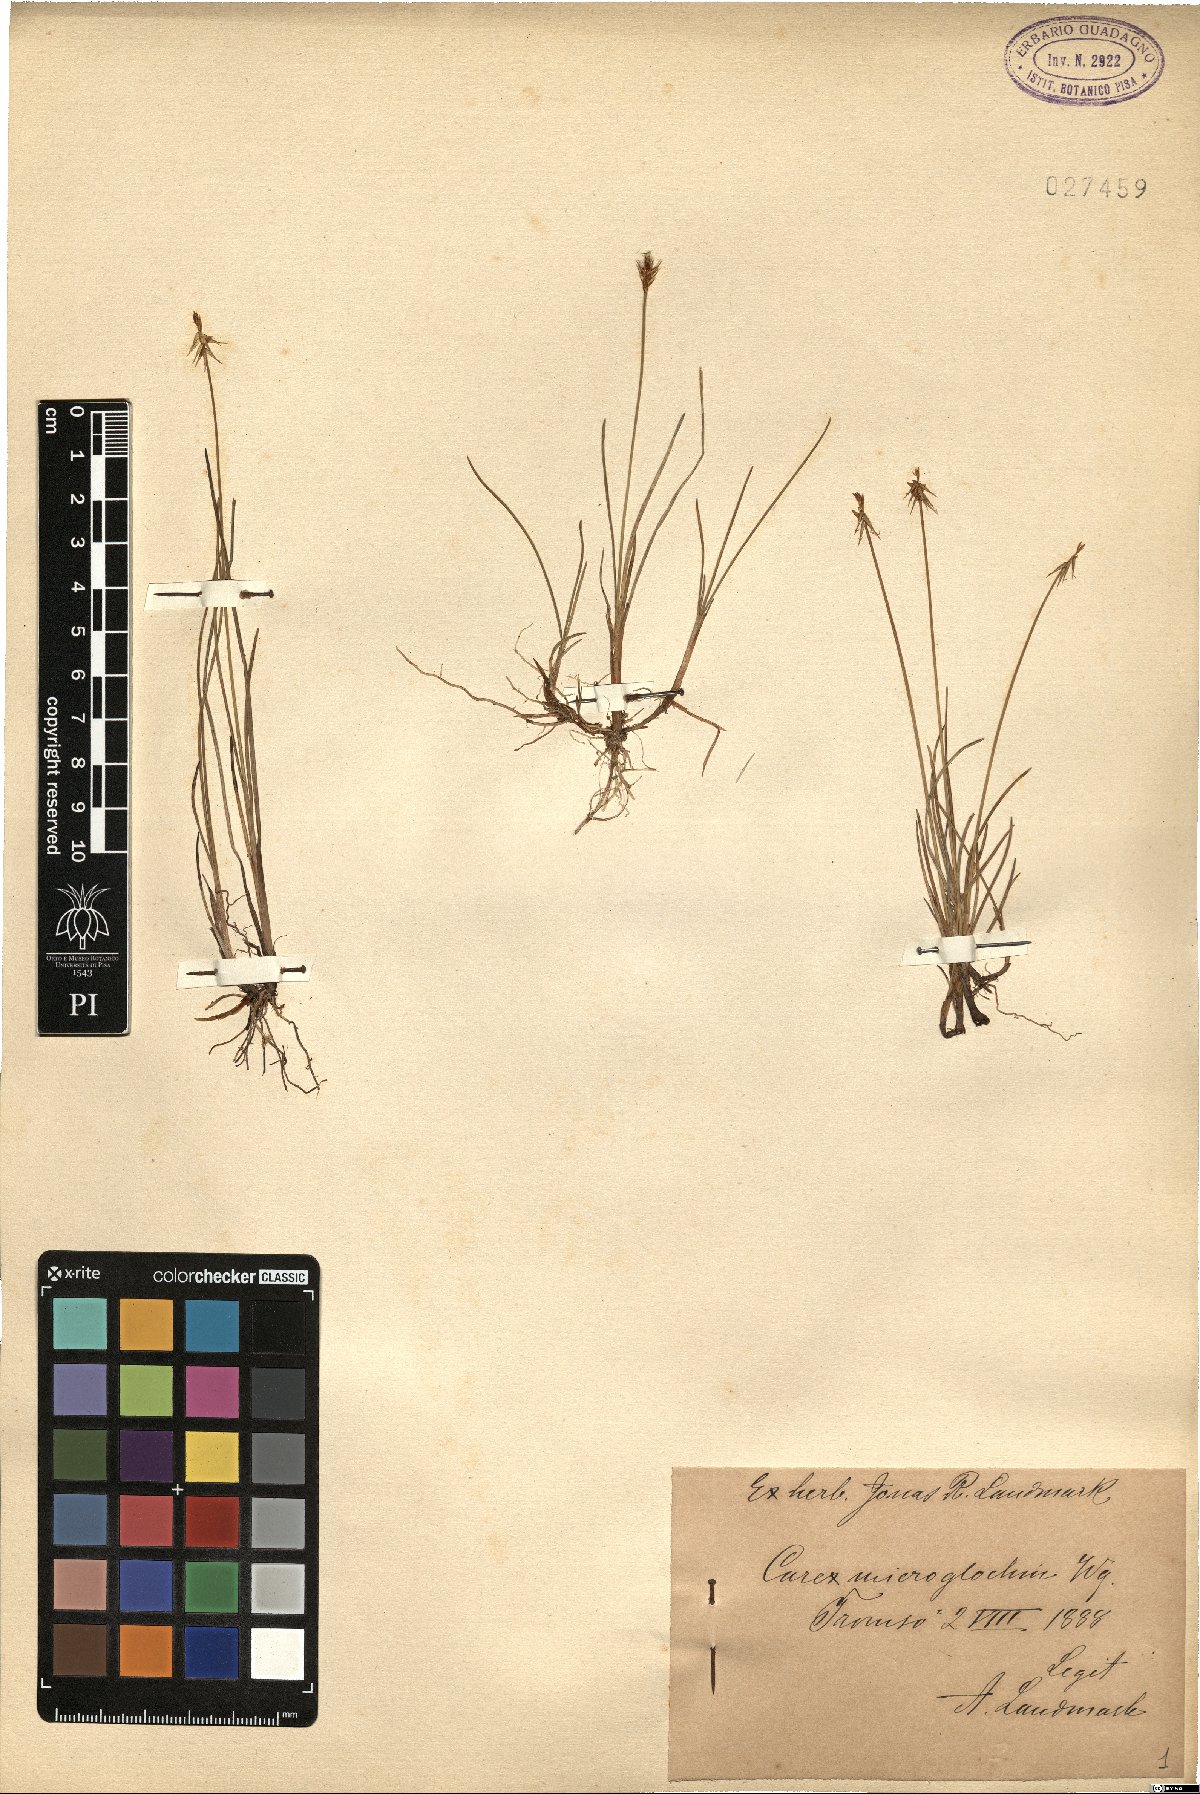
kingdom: Plantae
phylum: Tracheophyta
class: Liliopsida
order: Poales
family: Cyperaceae
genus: Carex
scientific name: Carex microglochin
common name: Bristle sedge
